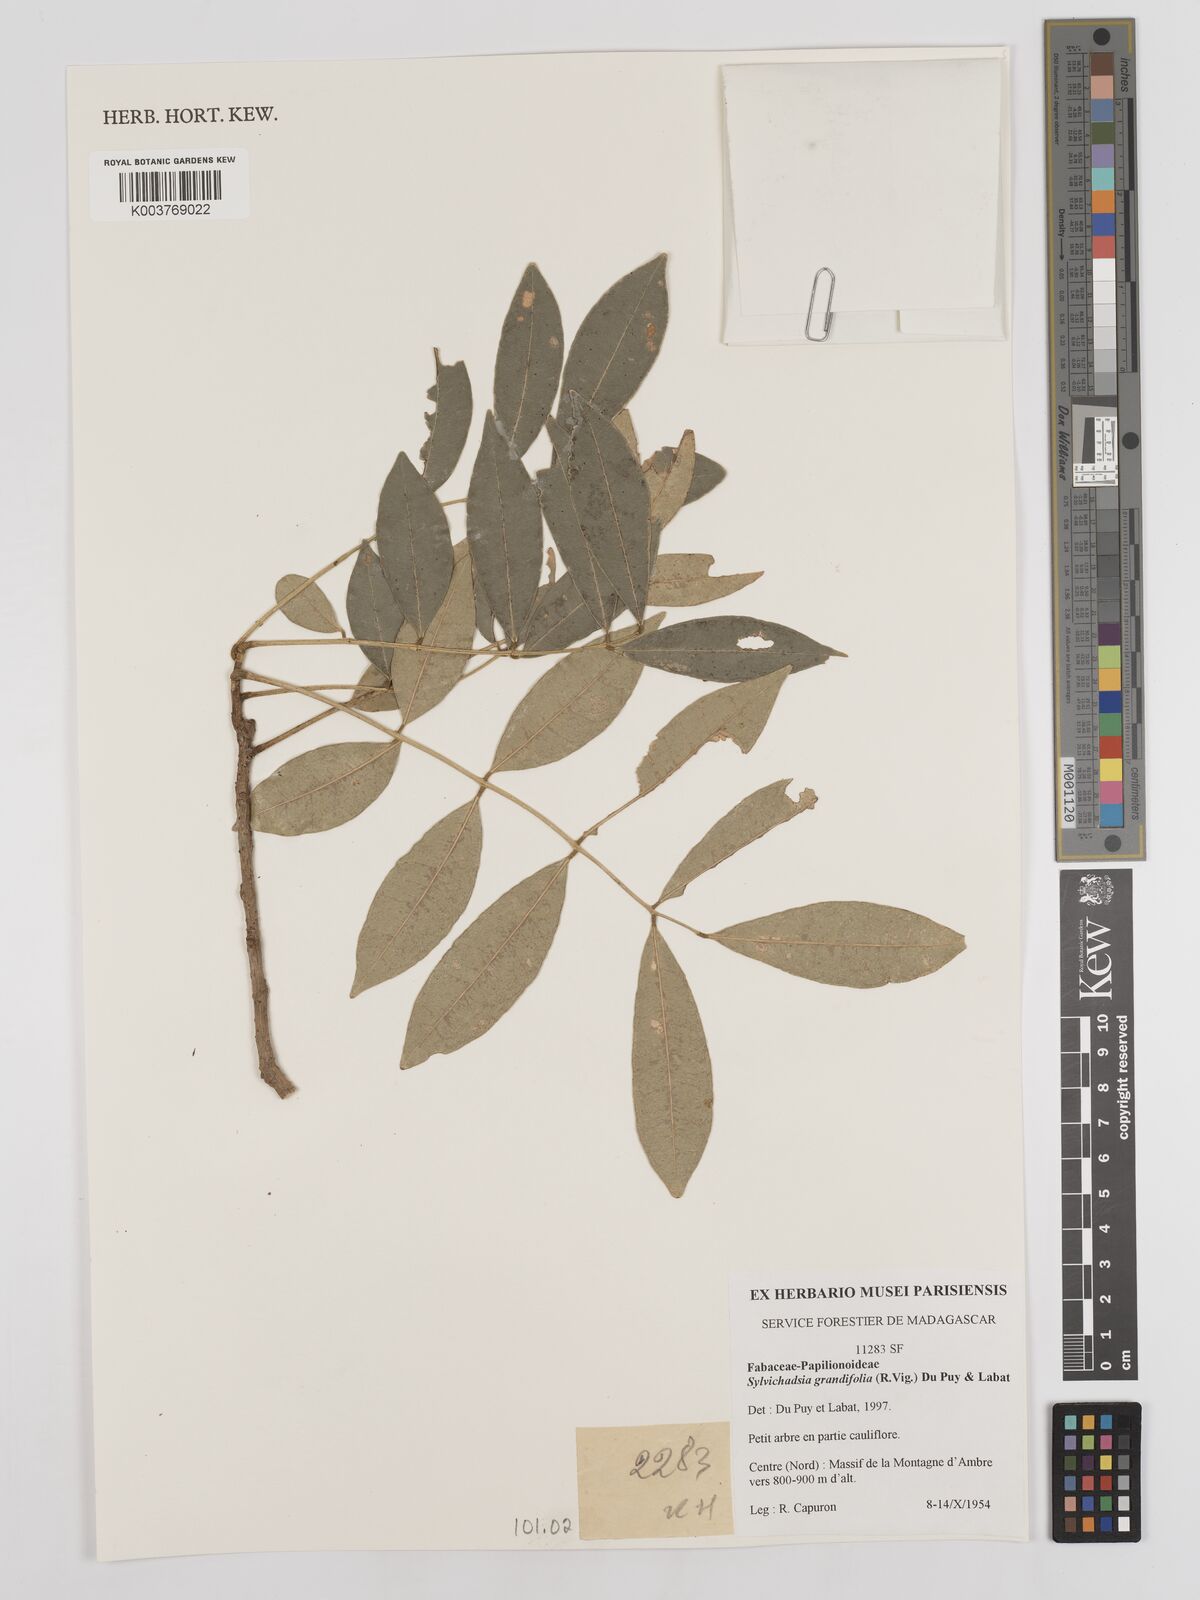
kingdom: Plantae
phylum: Tracheophyta
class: Magnoliopsida
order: Fabales
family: Fabaceae
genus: Sylvichadsia
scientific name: Sylvichadsia grandifolia
